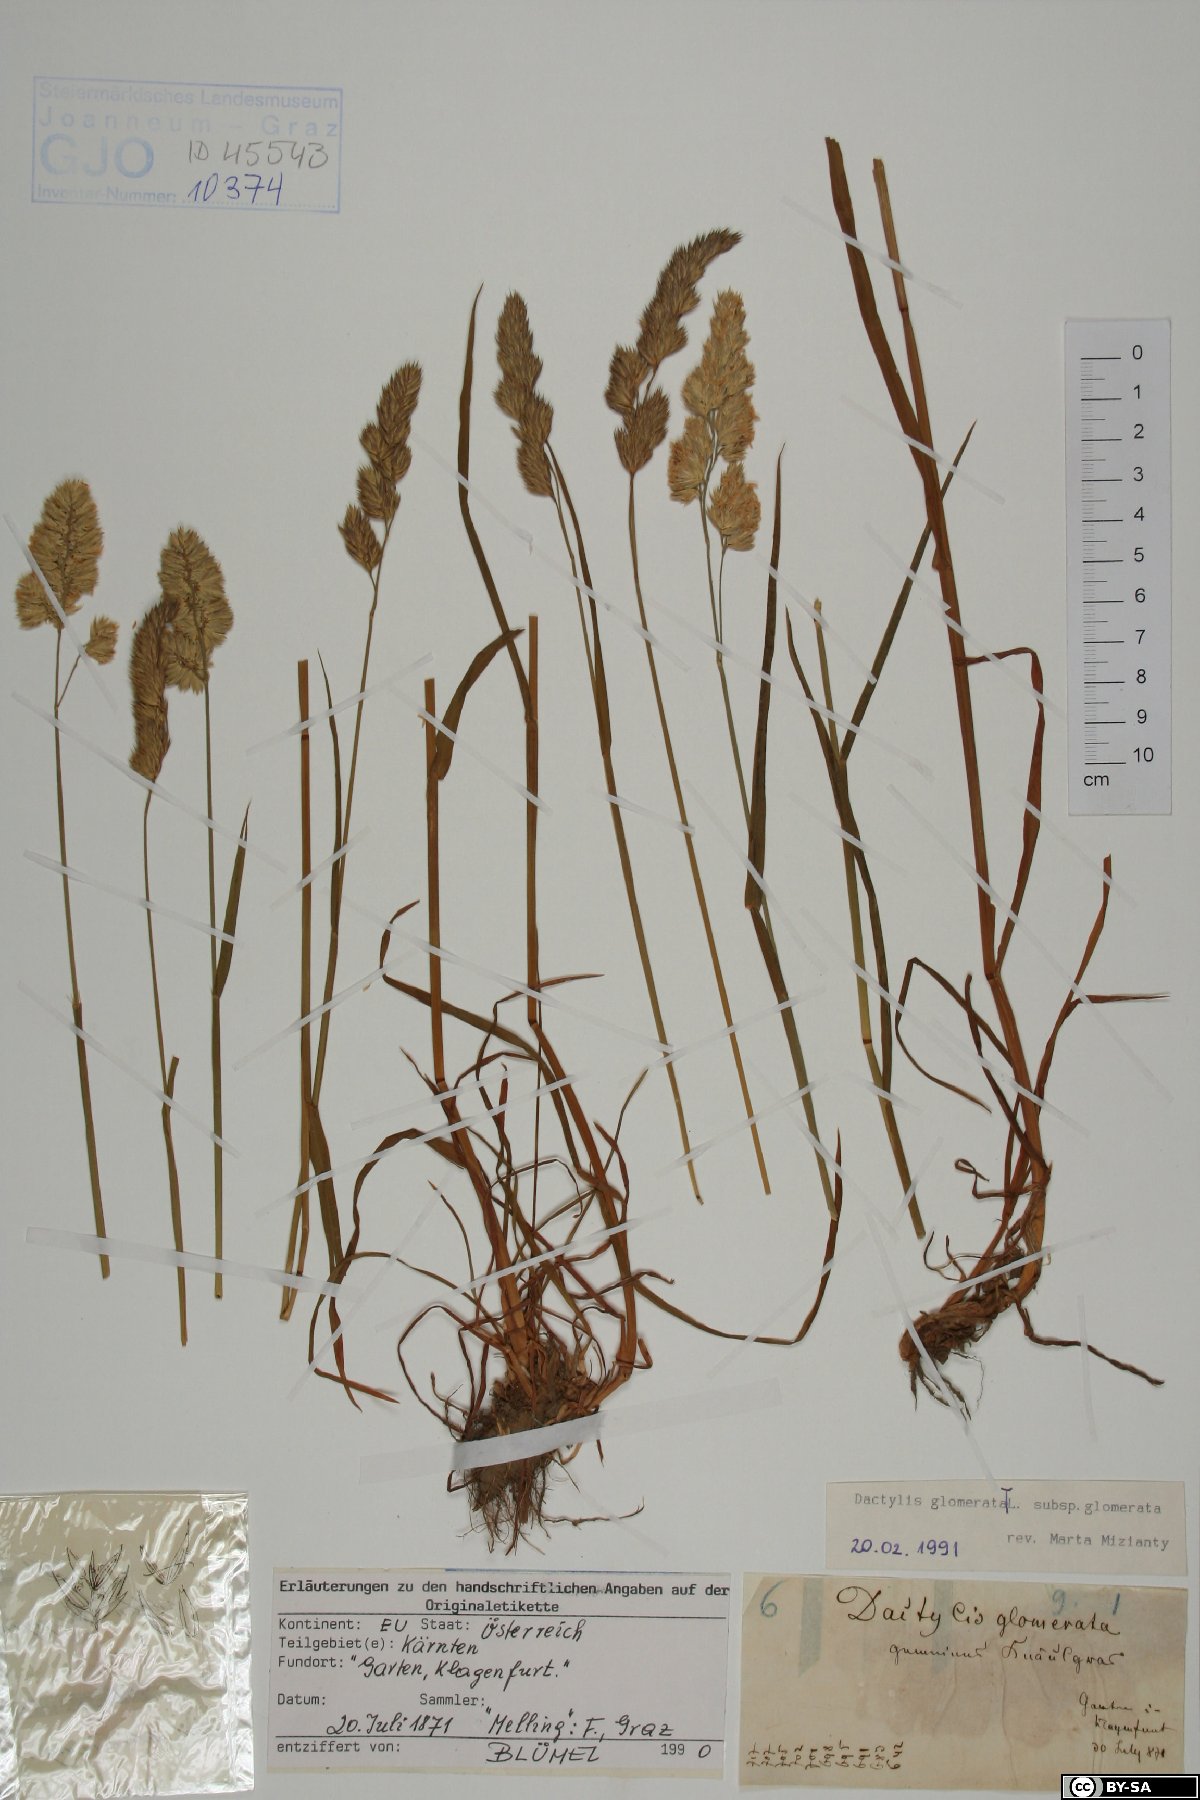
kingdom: Plantae
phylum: Tracheophyta
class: Liliopsida
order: Poales
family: Poaceae
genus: Dactylis
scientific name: Dactylis glomerata
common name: Orchardgrass
